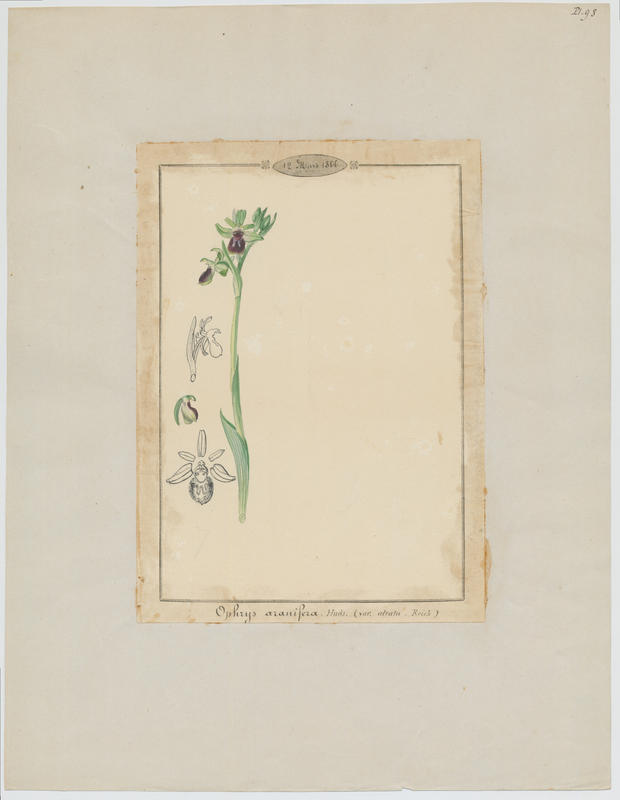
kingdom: Plantae
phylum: Tracheophyta
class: Liliopsida
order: Asparagales
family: Orchidaceae
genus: Ophrys
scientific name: Ophrys sphegodes
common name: Early spider-orchid
